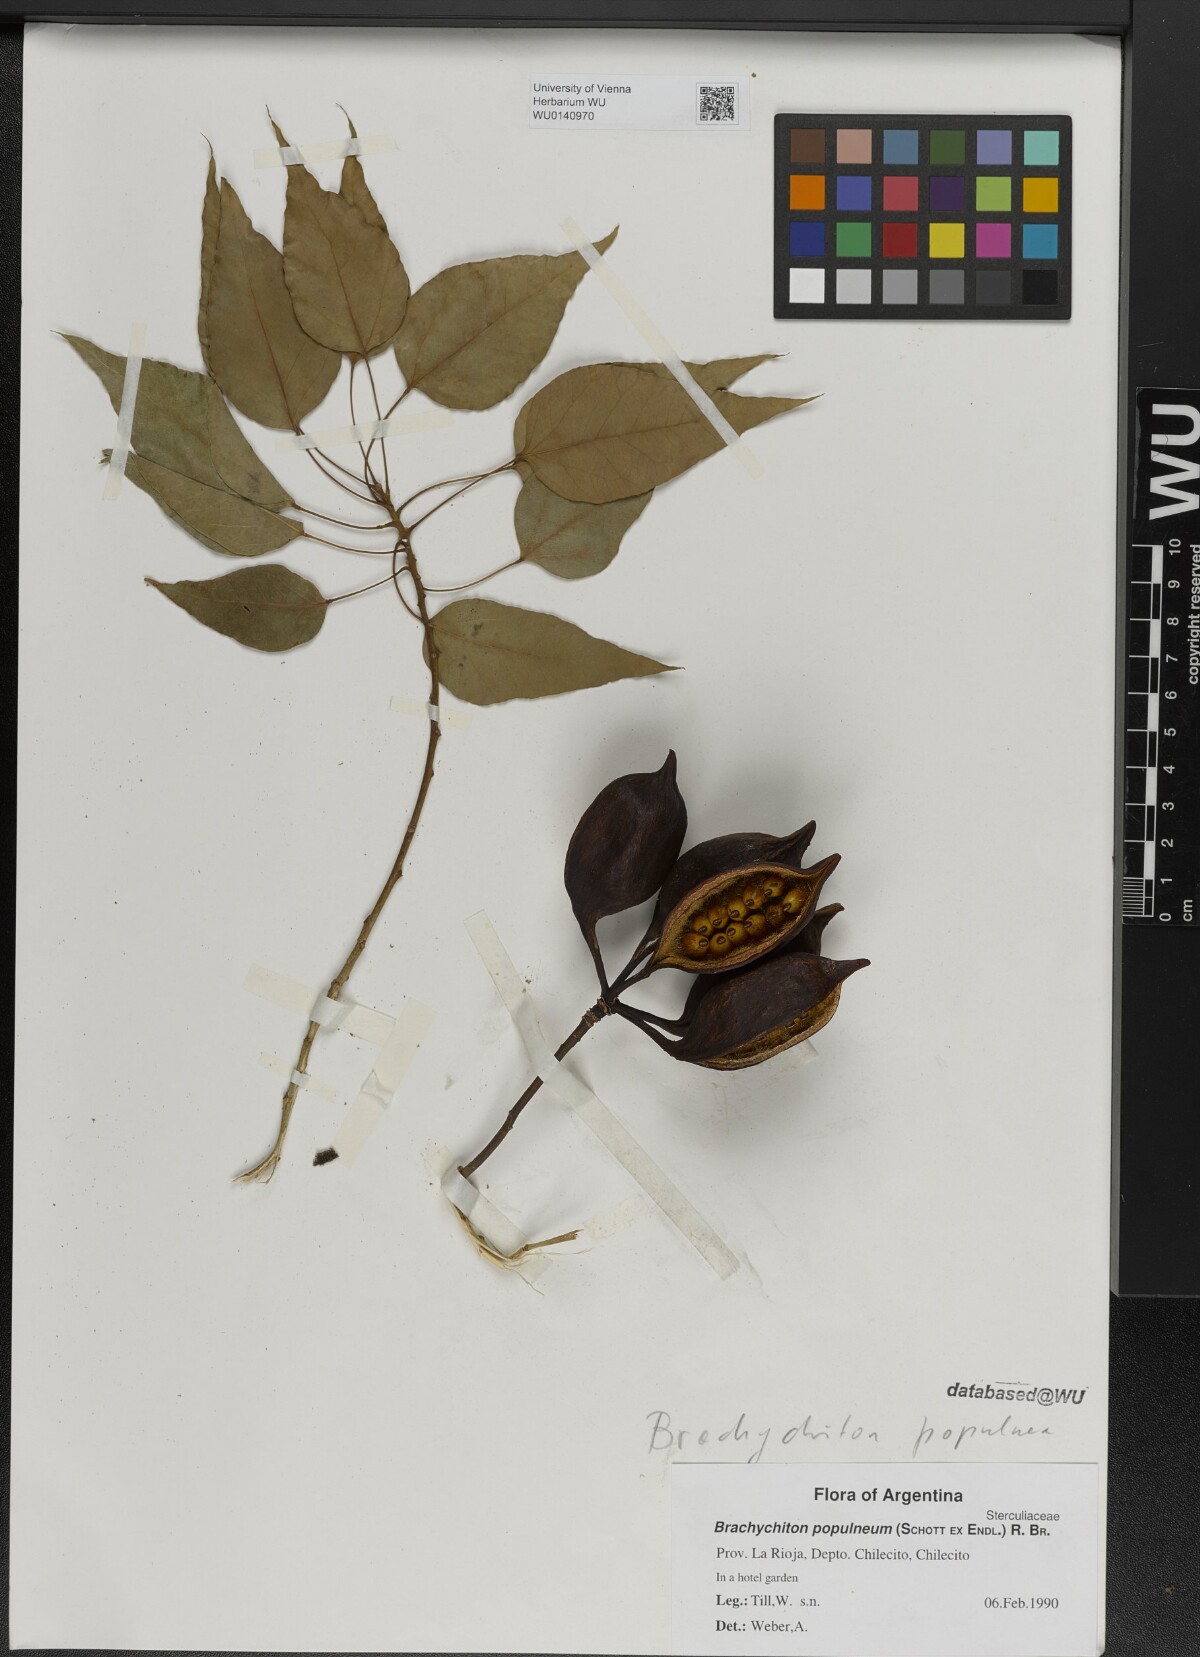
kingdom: Plantae
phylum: Tracheophyta
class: Magnoliopsida
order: Malvales
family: Malvaceae
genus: Brachychiton
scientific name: Brachychiton populneus
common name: Kurrajong
